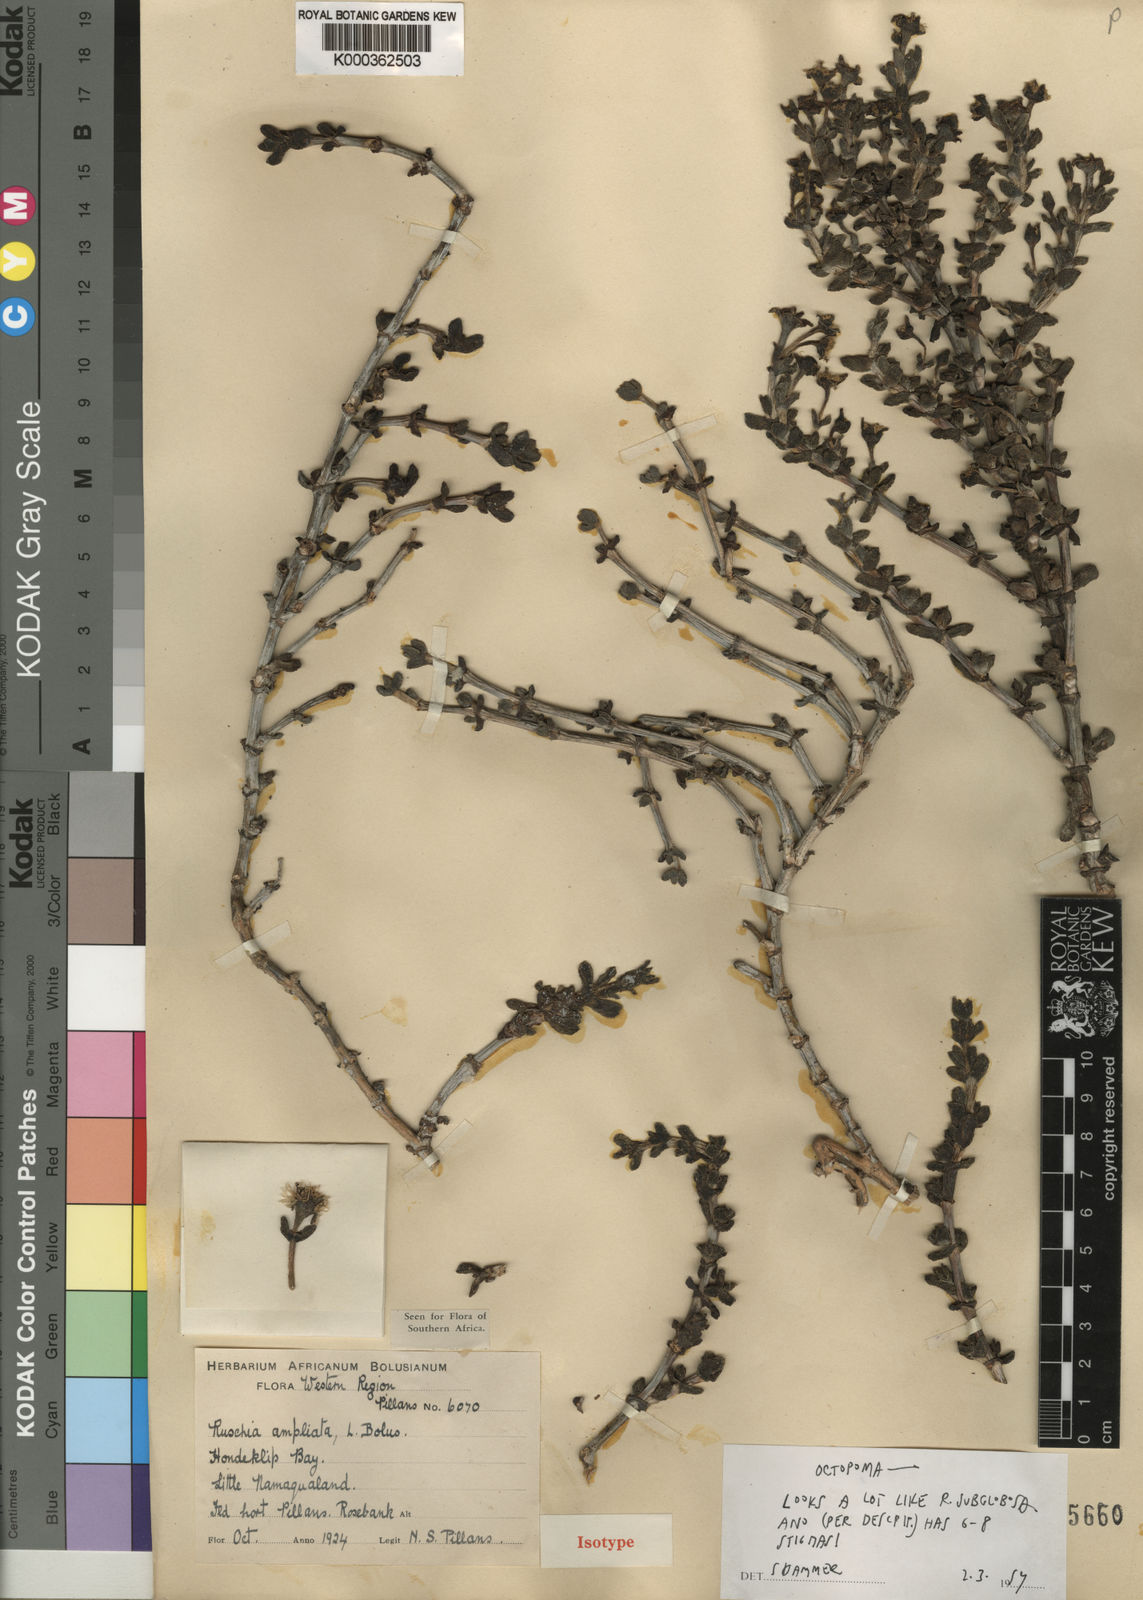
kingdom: Plantae
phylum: Tracheophyta
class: Magnoliopsida
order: Caryophyllales
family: Aizoaceae
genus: Ruschia
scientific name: Ruschia ampliata
